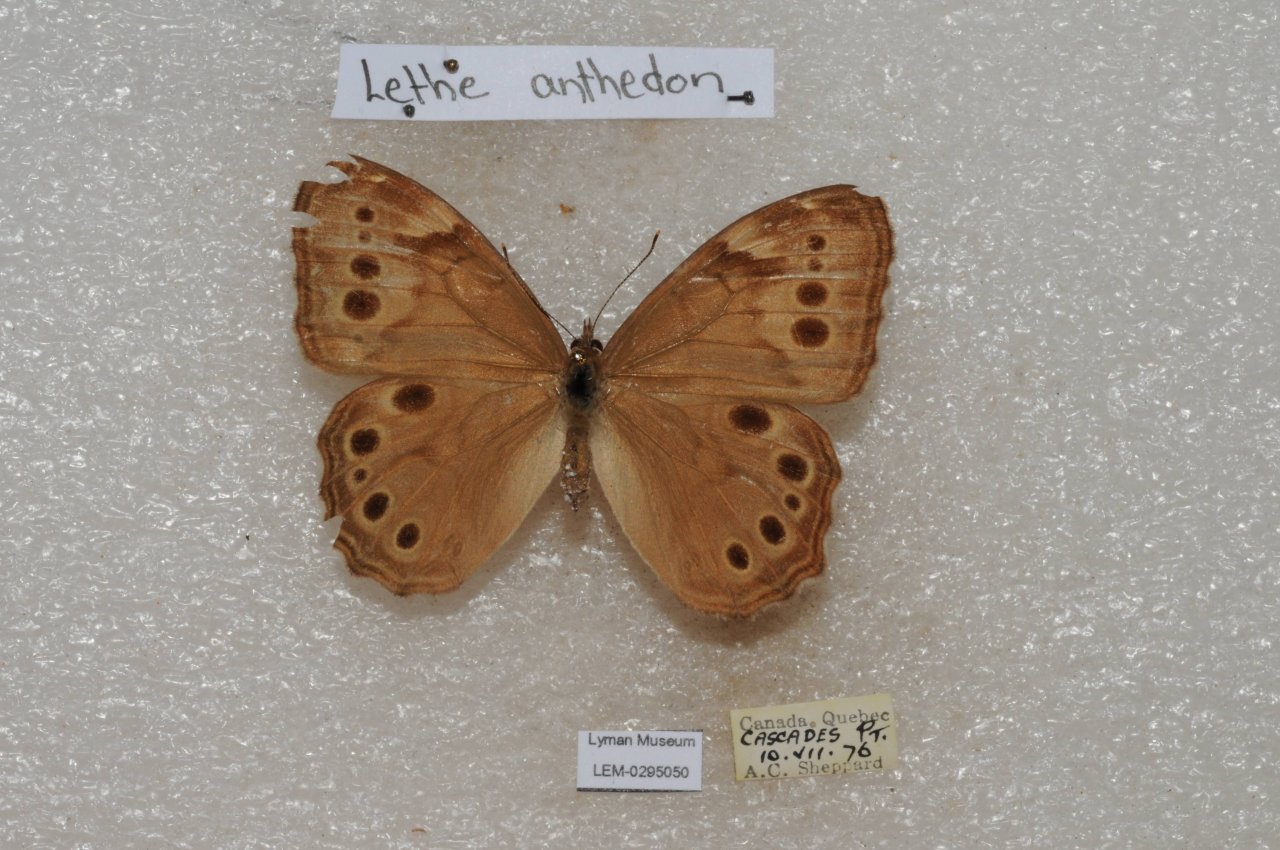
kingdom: Animalia
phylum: Arthropoda
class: Insecta
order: Lepidoptera
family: Nymphalidae
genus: Lethe
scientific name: Lethe anthedon
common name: Northern Pearly-Eye
